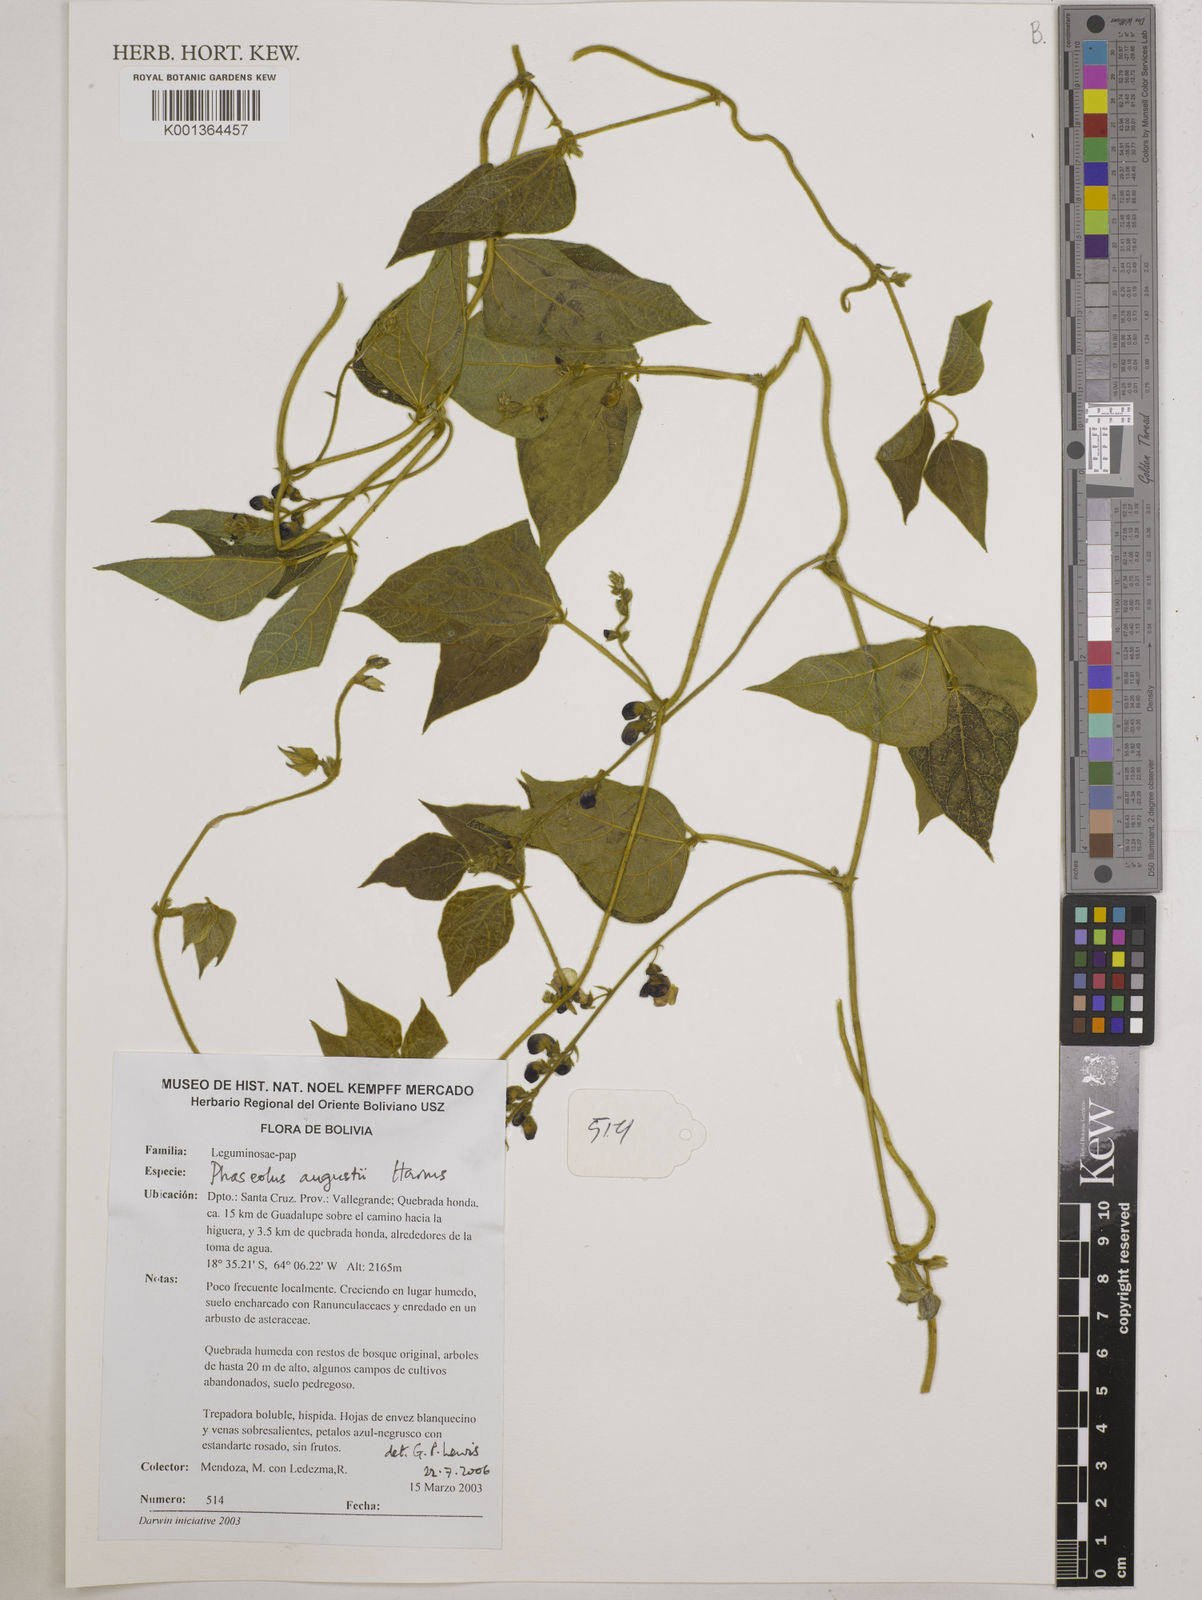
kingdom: Plantae
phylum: Tracheophyta
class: Magnoliopsida
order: Fabales
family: Fabaceae
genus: Phaseolus
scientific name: Phaseolus augusti
